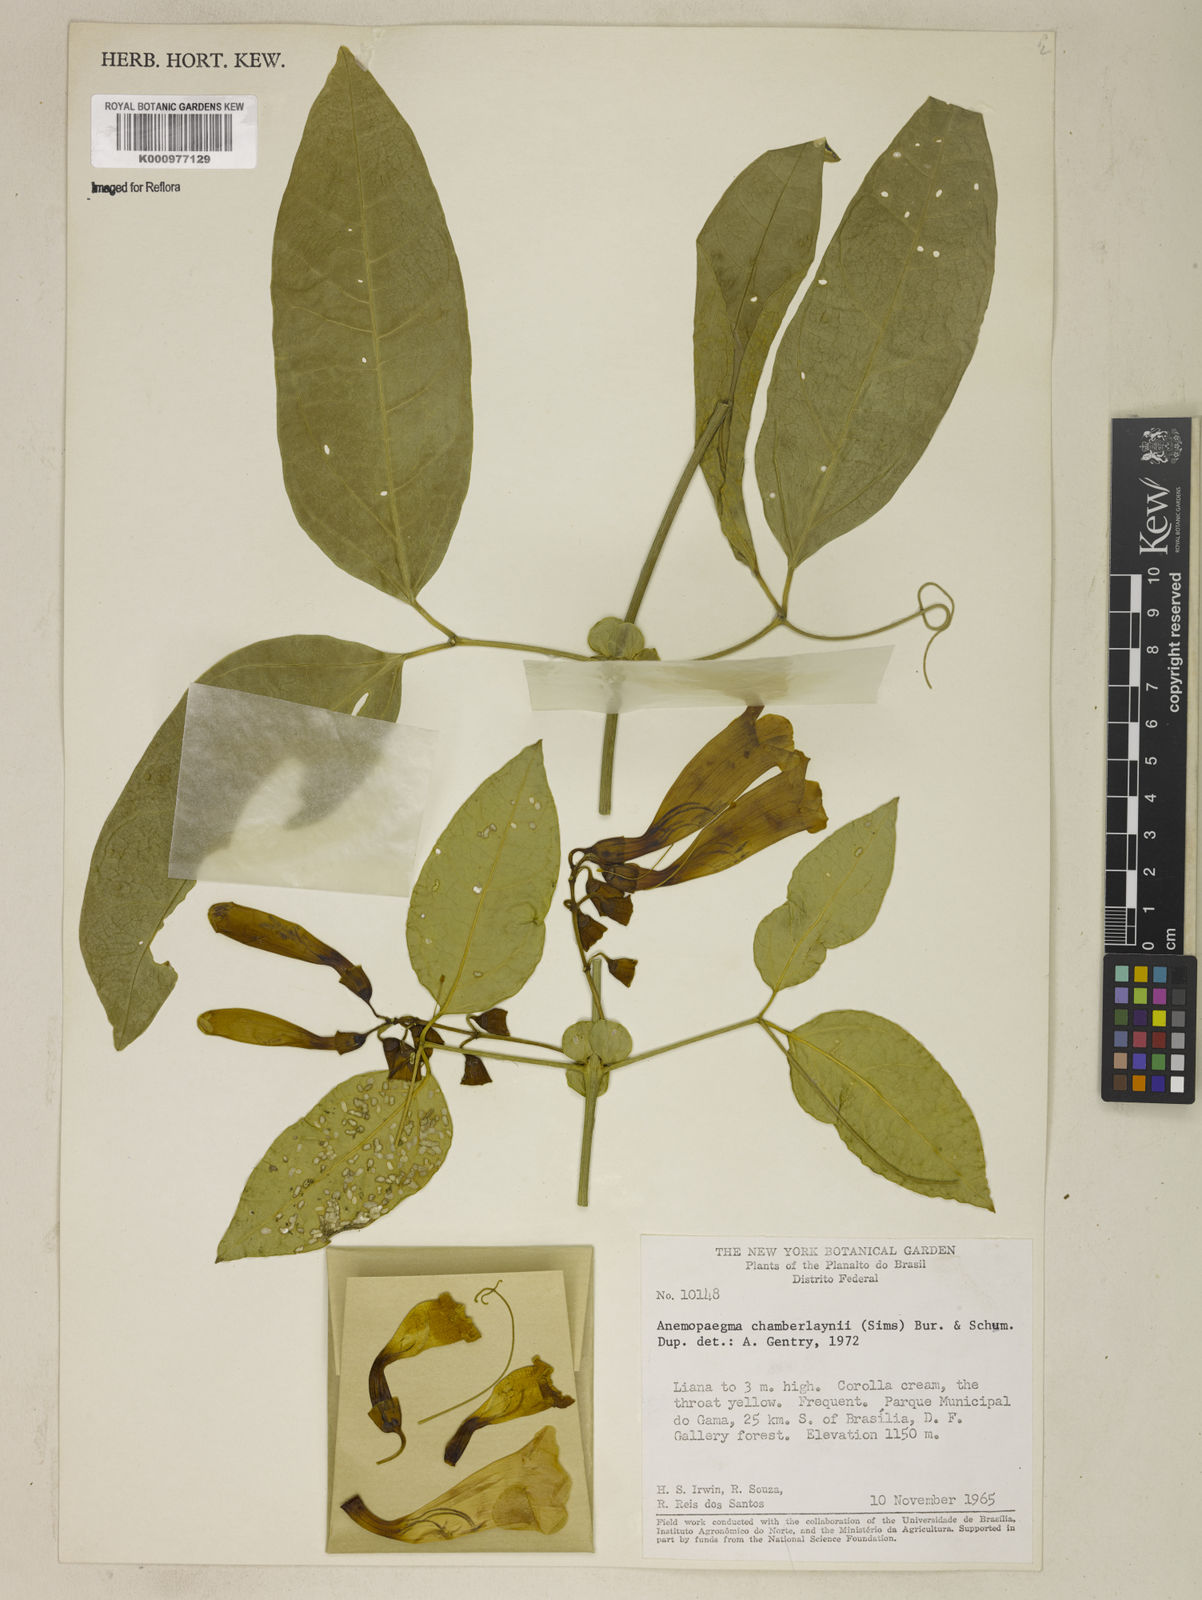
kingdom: Plantae
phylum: Tracheophyta
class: Magnoliopsida
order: Lamiales
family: Bignoniaceae
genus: Anemopaegma
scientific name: Anemopaegma chamberlaynii
